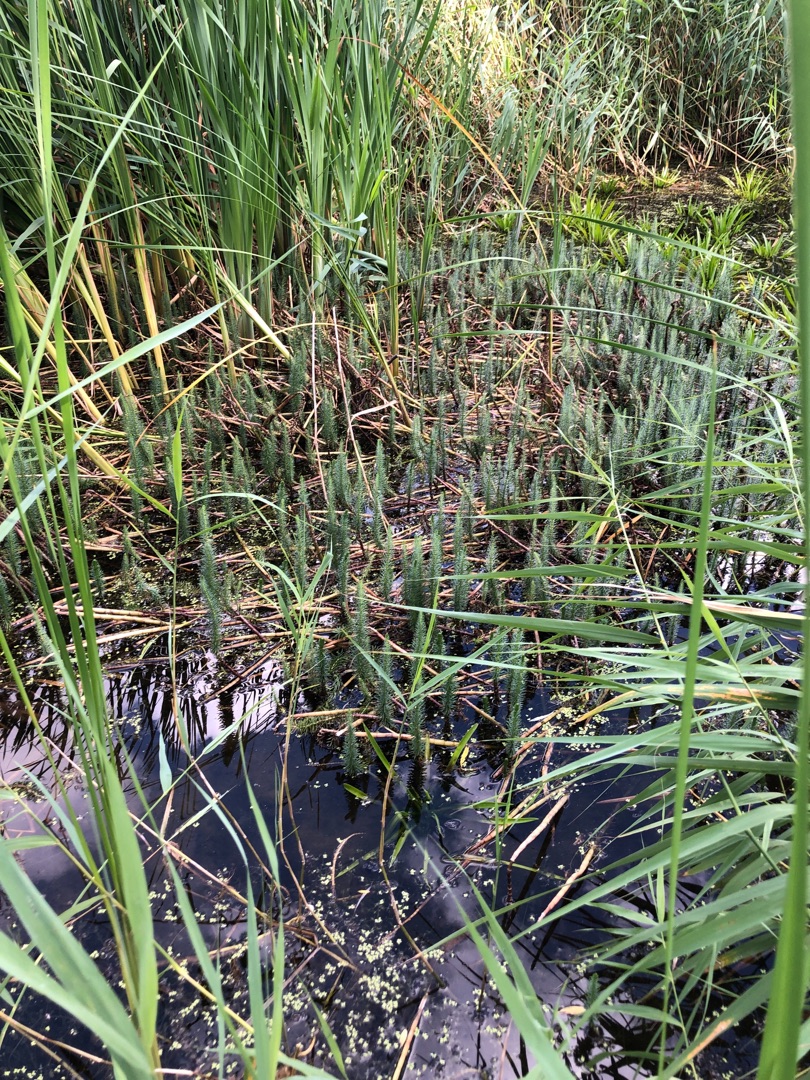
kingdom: Plantae
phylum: Tracheophyta
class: Magnoliopsida
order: Lamiales
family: Plantaginaceae
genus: Hippuris
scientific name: Hippuris vulgaris
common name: Vandspir
